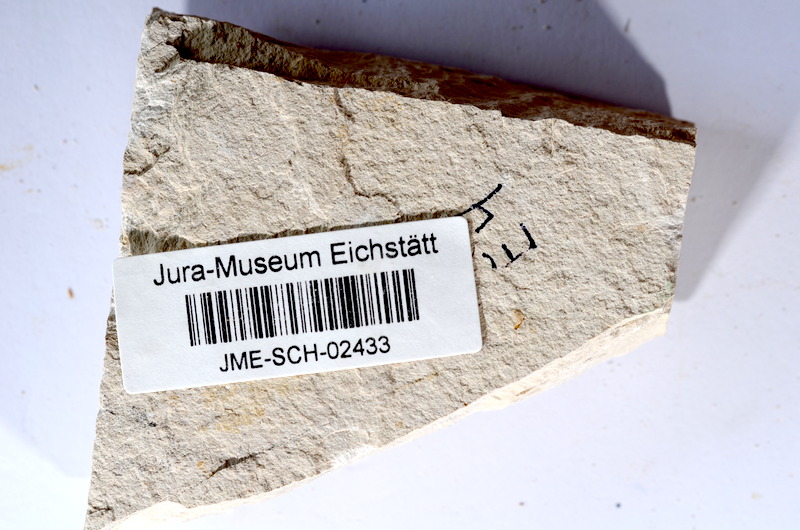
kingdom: Animalia
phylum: Chordata
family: Ascalaboidae
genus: Tharsis
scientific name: Tharsis dubius
